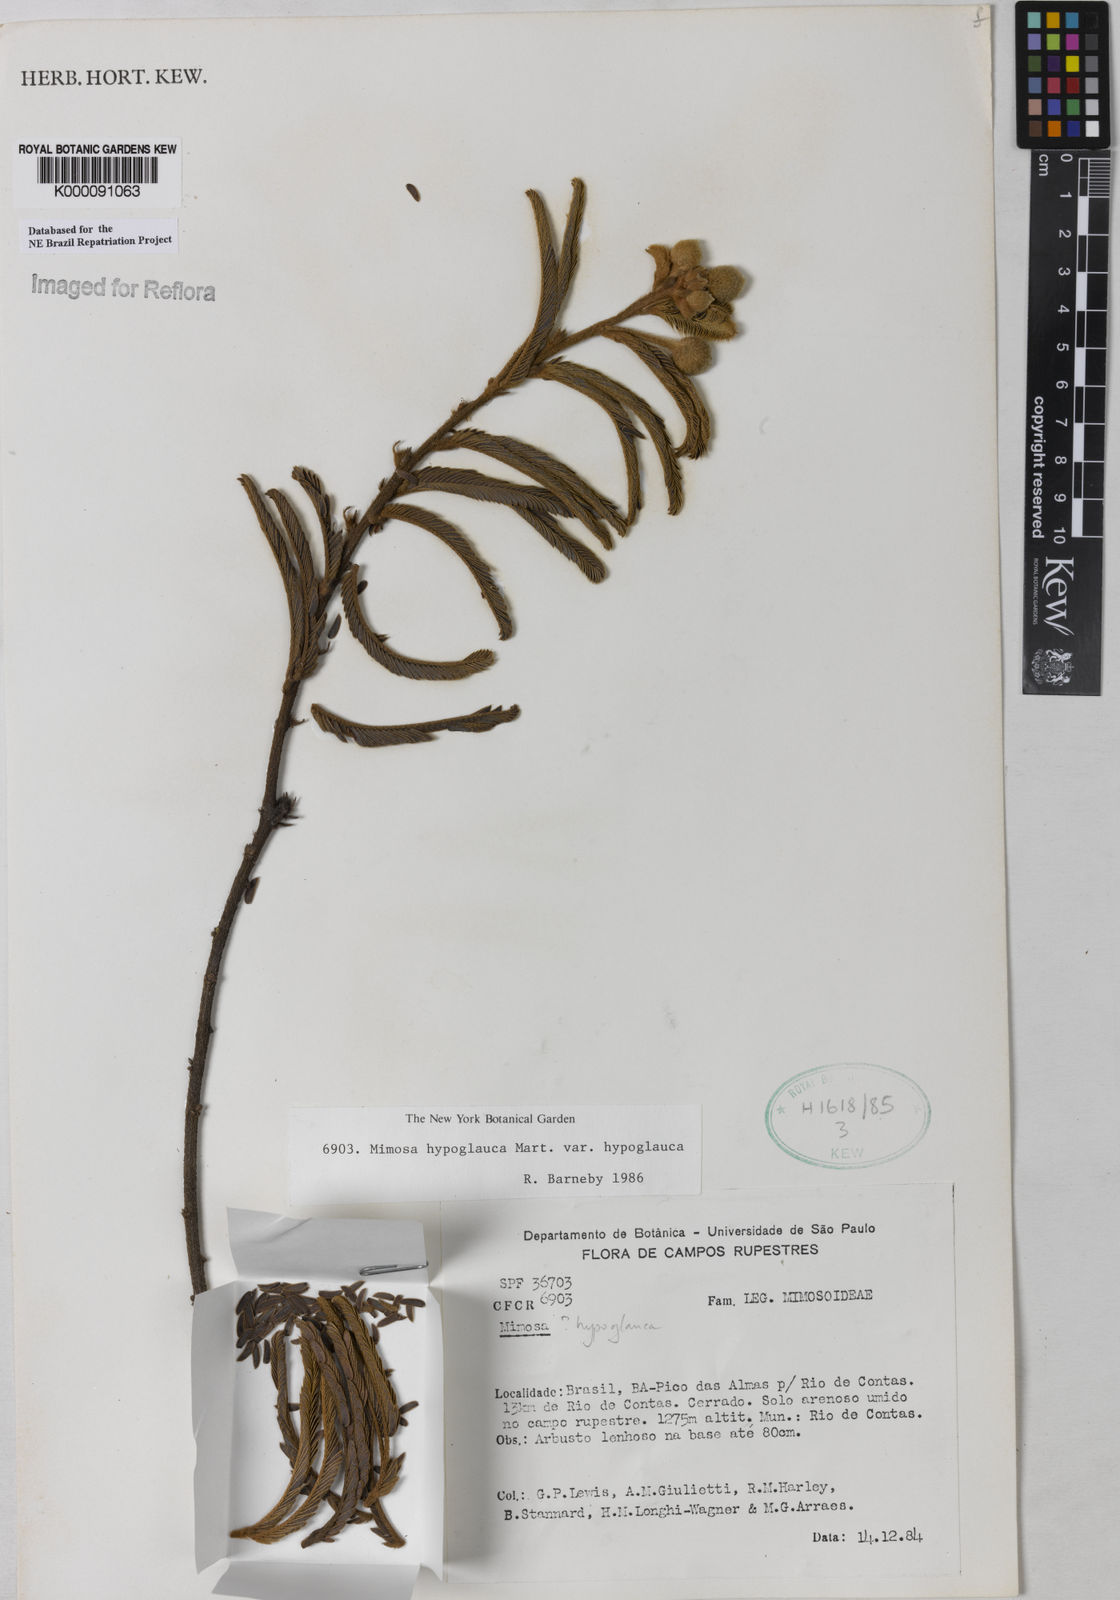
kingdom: Plantae
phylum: Tracheophyta
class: Magnoliopsida
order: Fabales
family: Fabaceae
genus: Mimosa
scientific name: Mimosa hypoglauca
